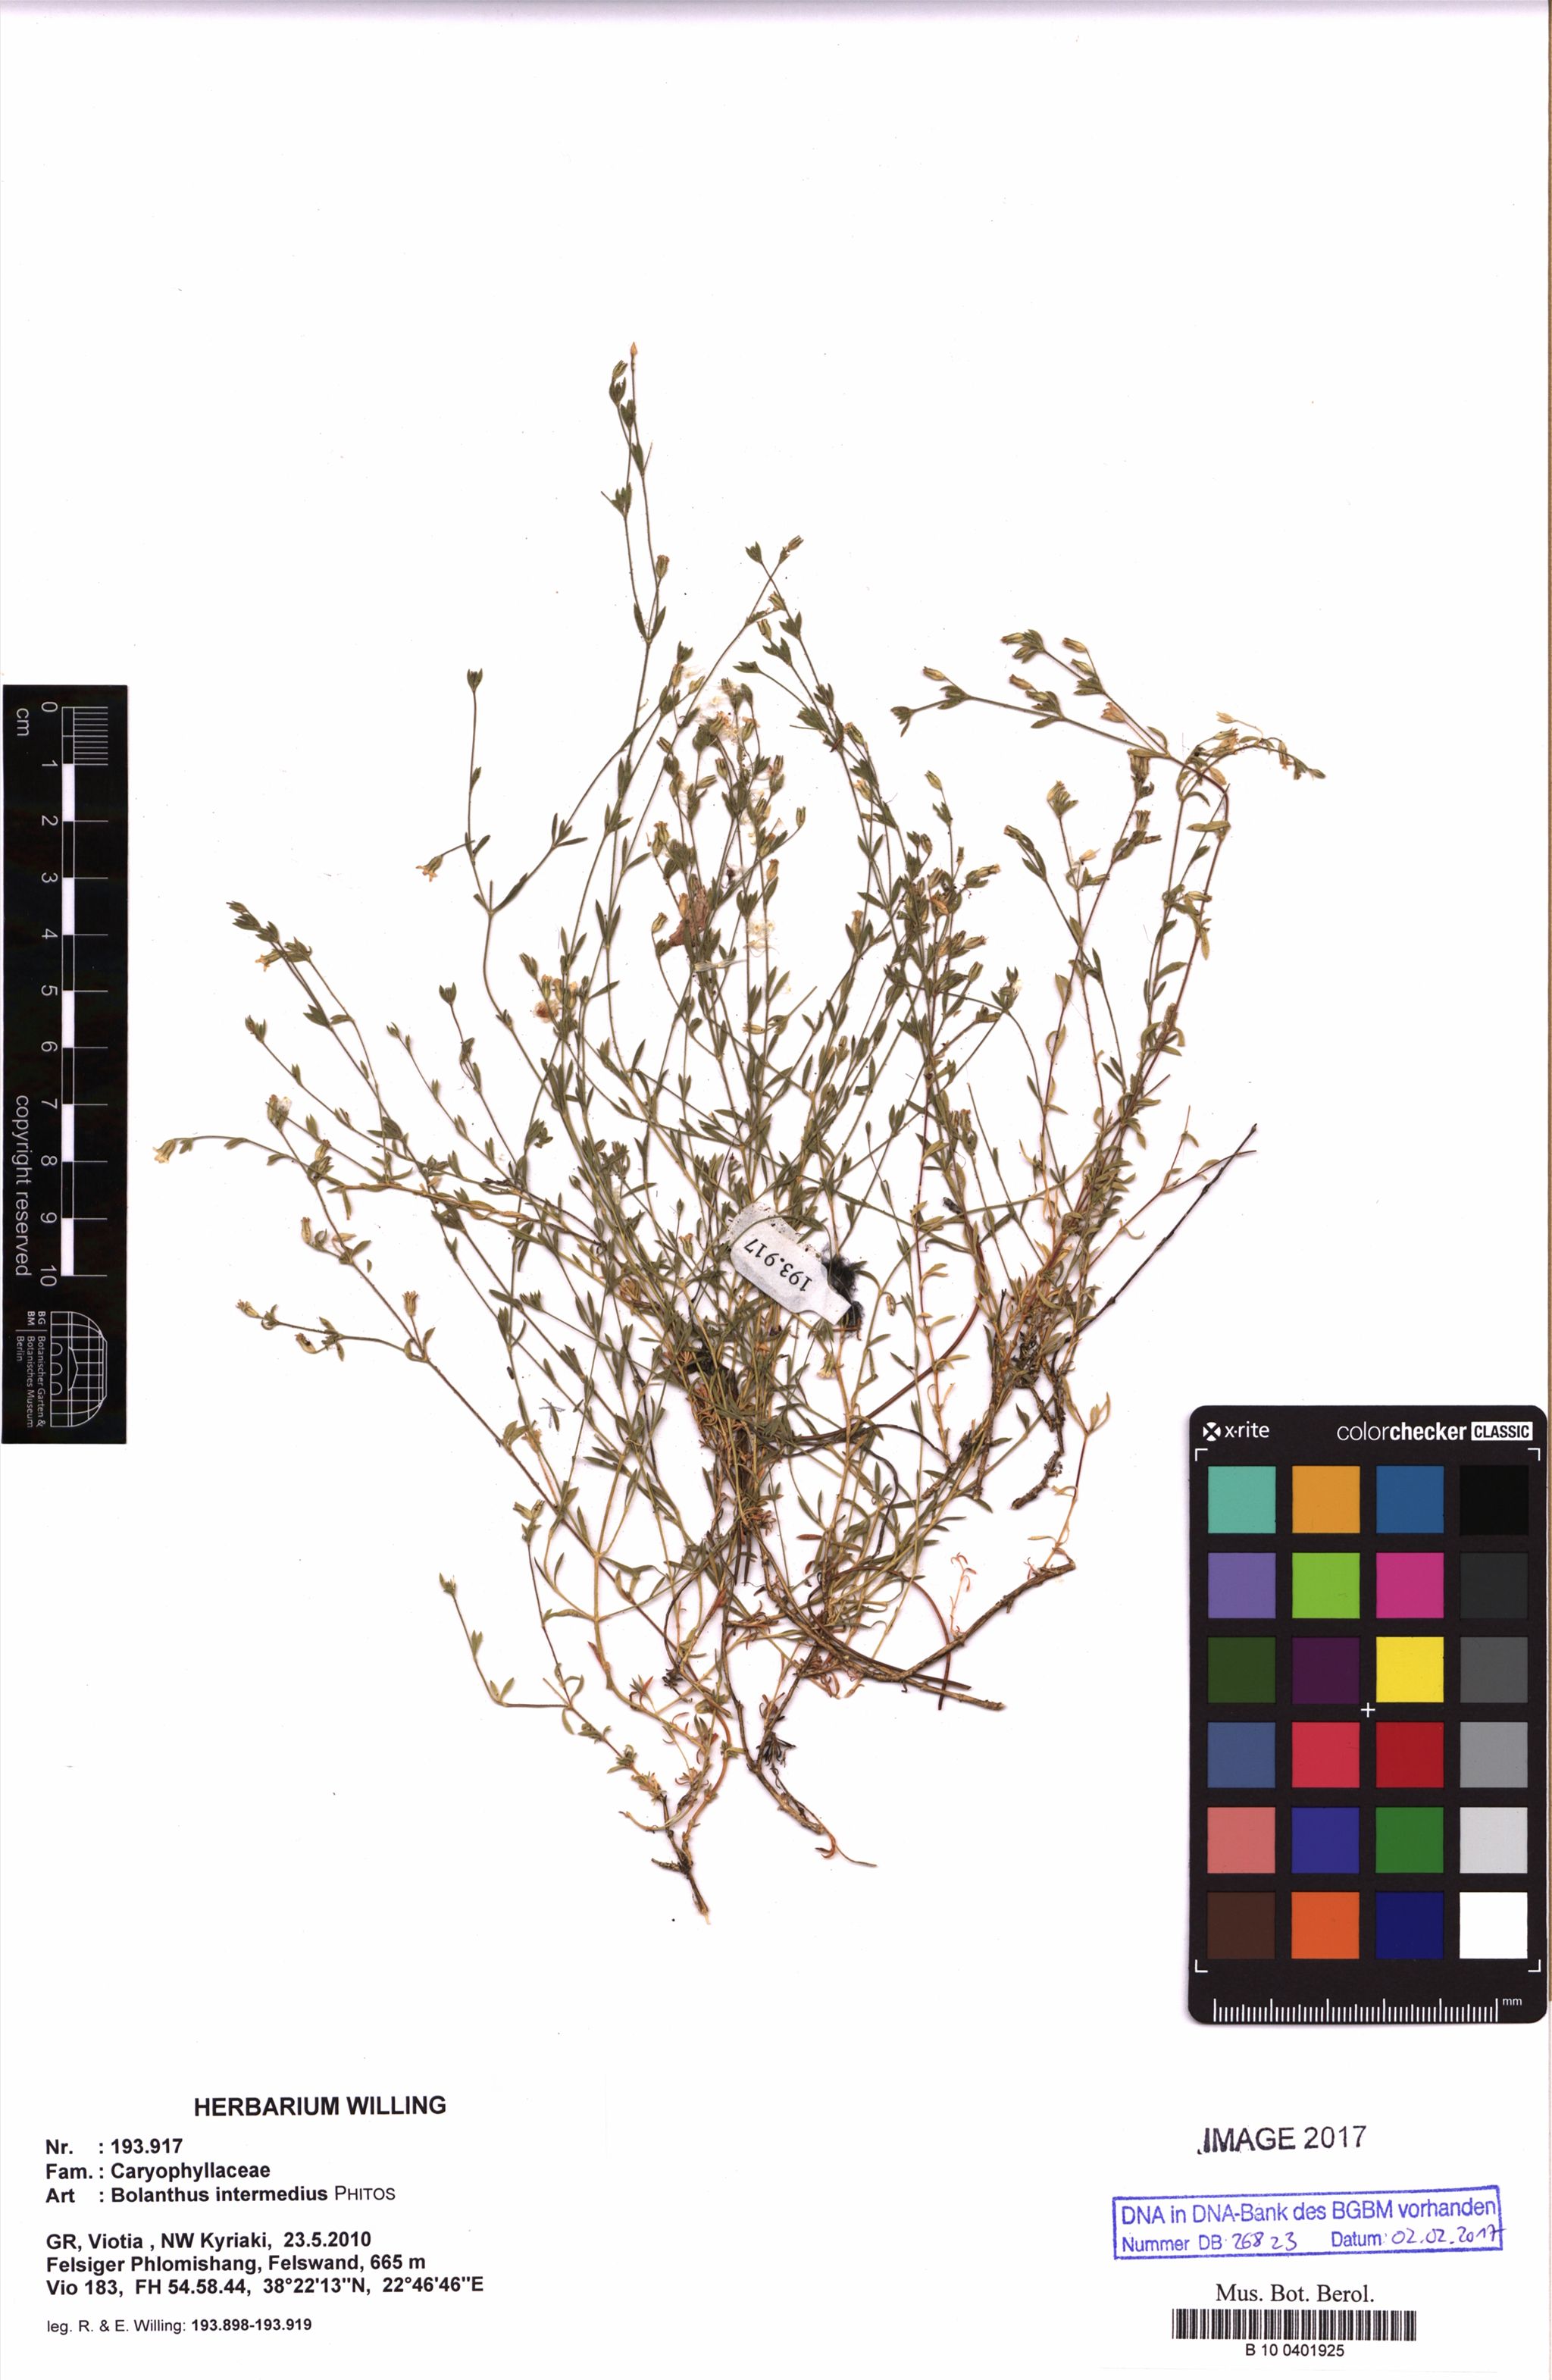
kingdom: Plantae
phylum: Tracheophyta
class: Magnoliopsida
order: Caryophyllales
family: Caryophyllaceae
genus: Graecobolanthus
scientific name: Graecobolanthus intermedius
